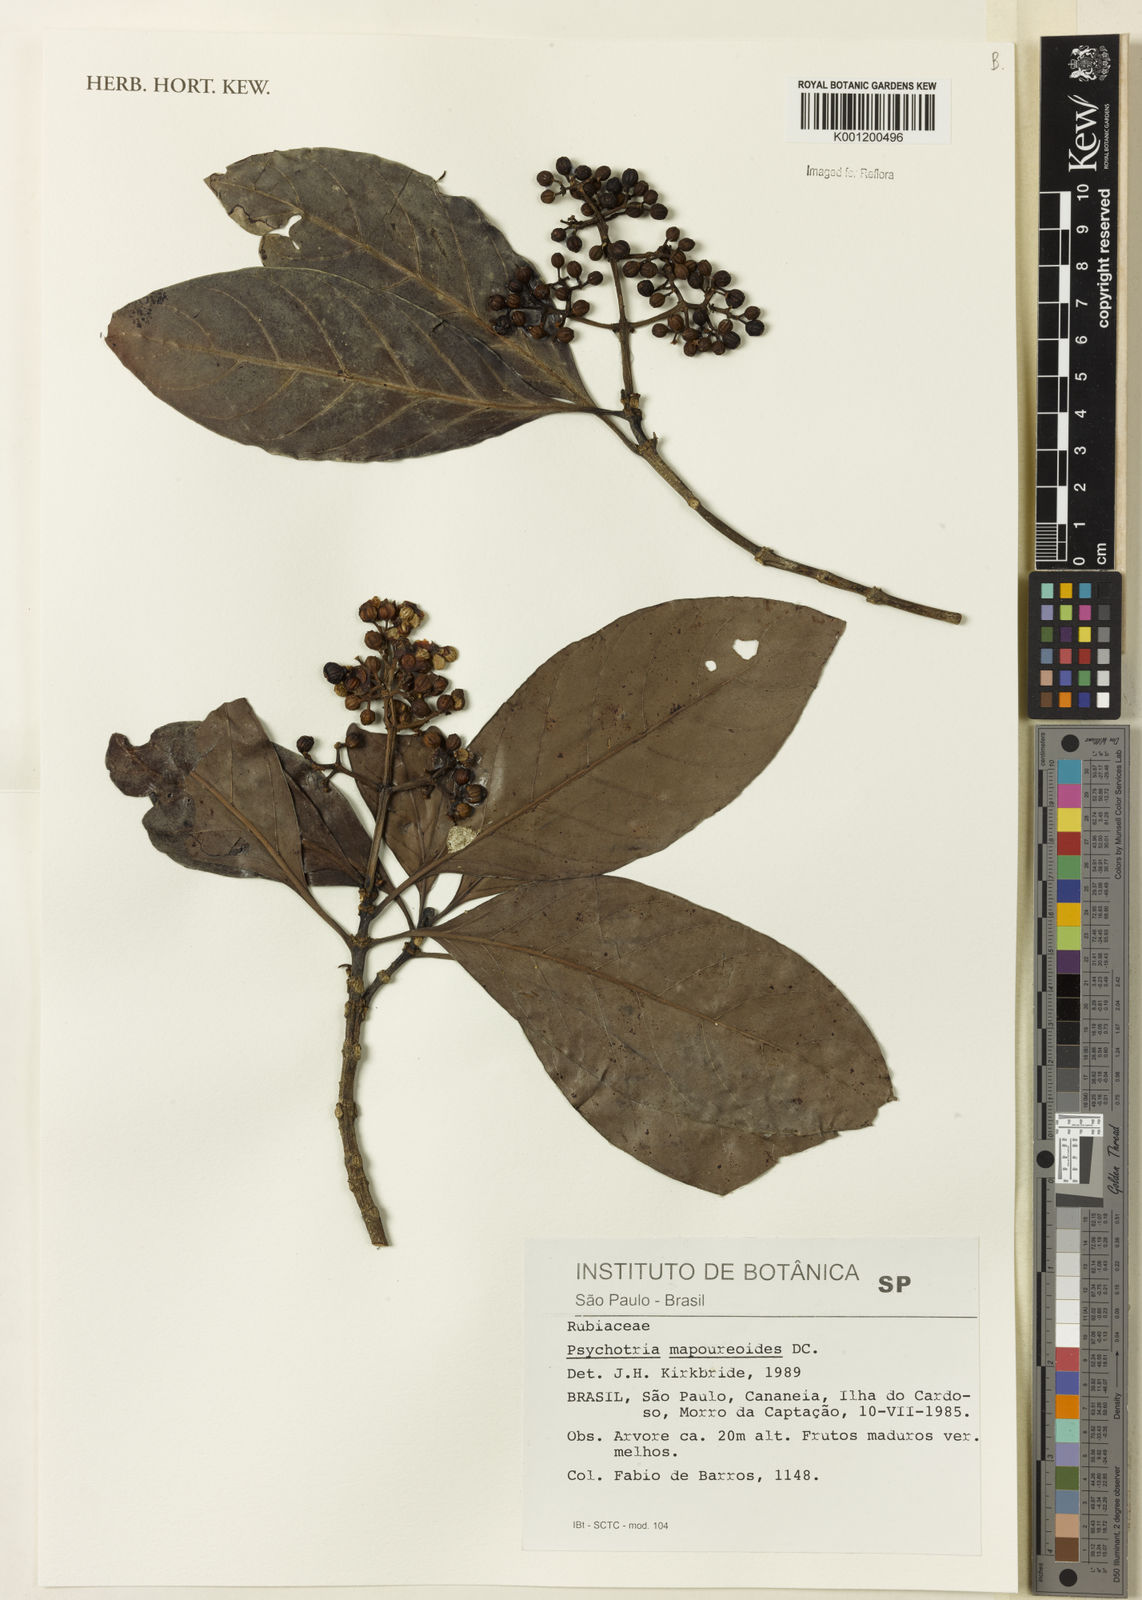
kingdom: Plantae
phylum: Tracheophyta
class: Magnoliopsida
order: Gentianales
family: Rubiaceae
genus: Psychotria
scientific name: Psychotria carthagenensis
